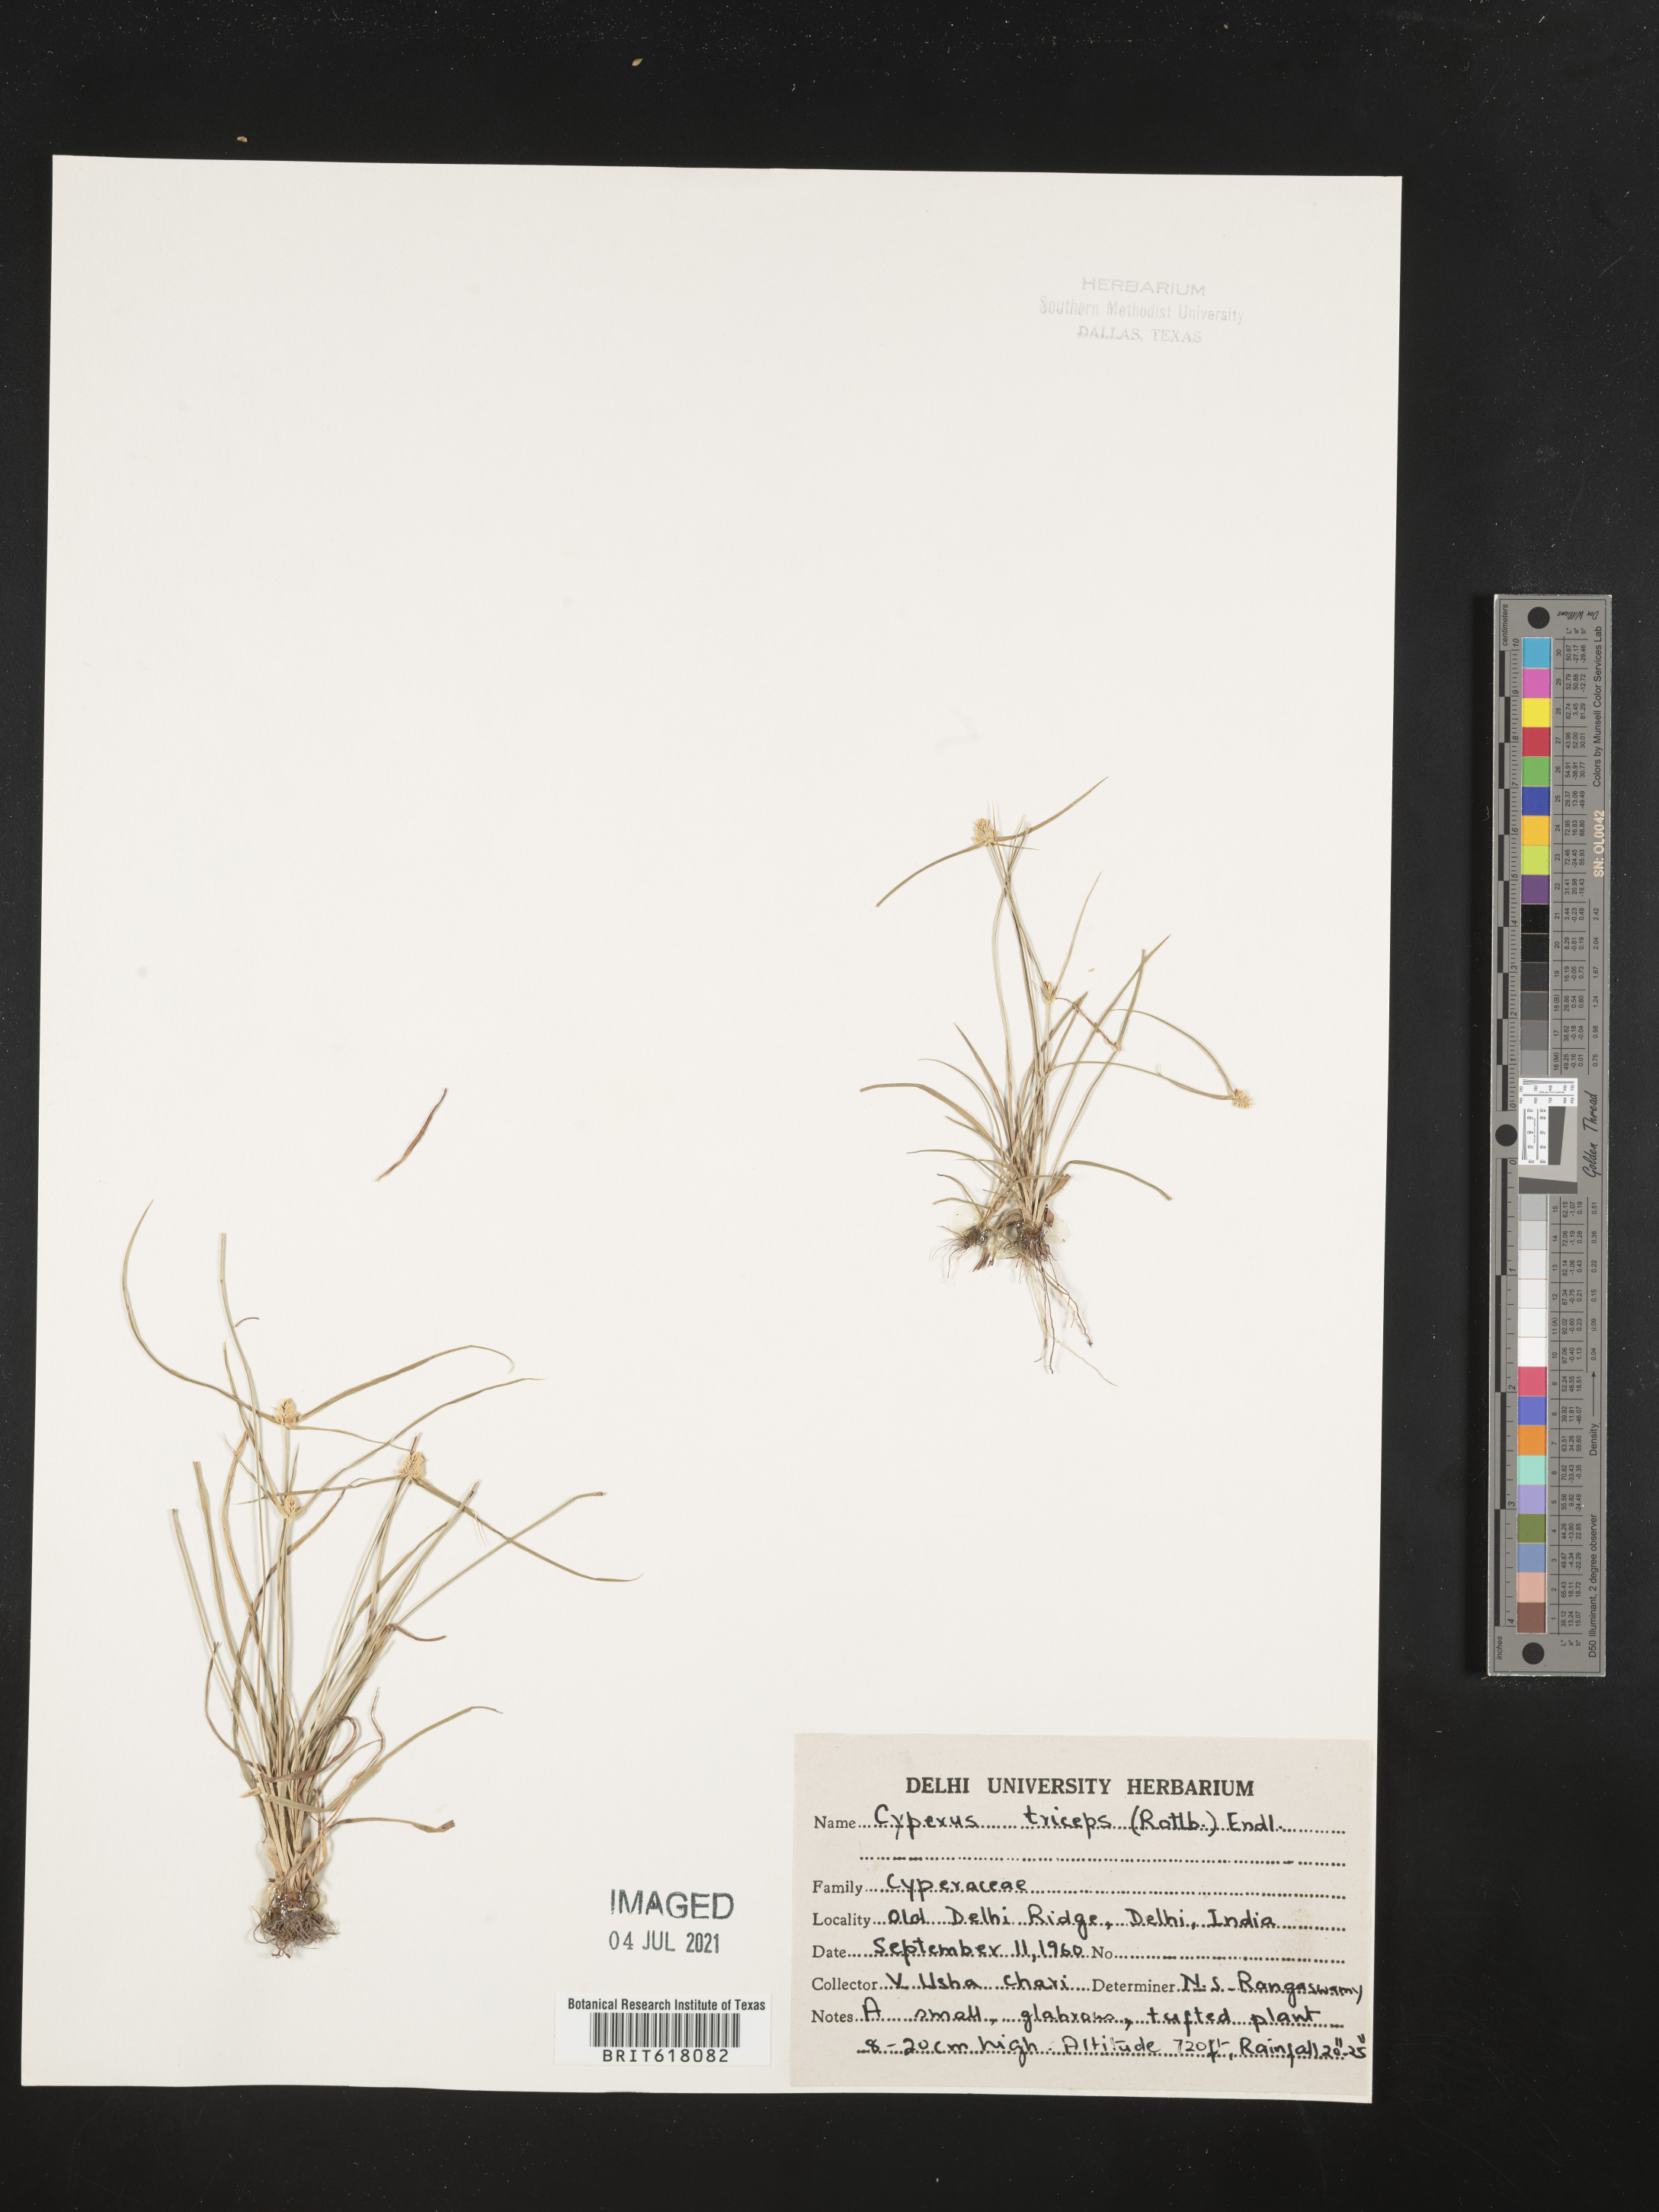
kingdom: Plantae
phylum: Tracheophyta
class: Liliopsida
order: Poales
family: Cyperaceae
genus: Cyperus
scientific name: Cyperus manimae
